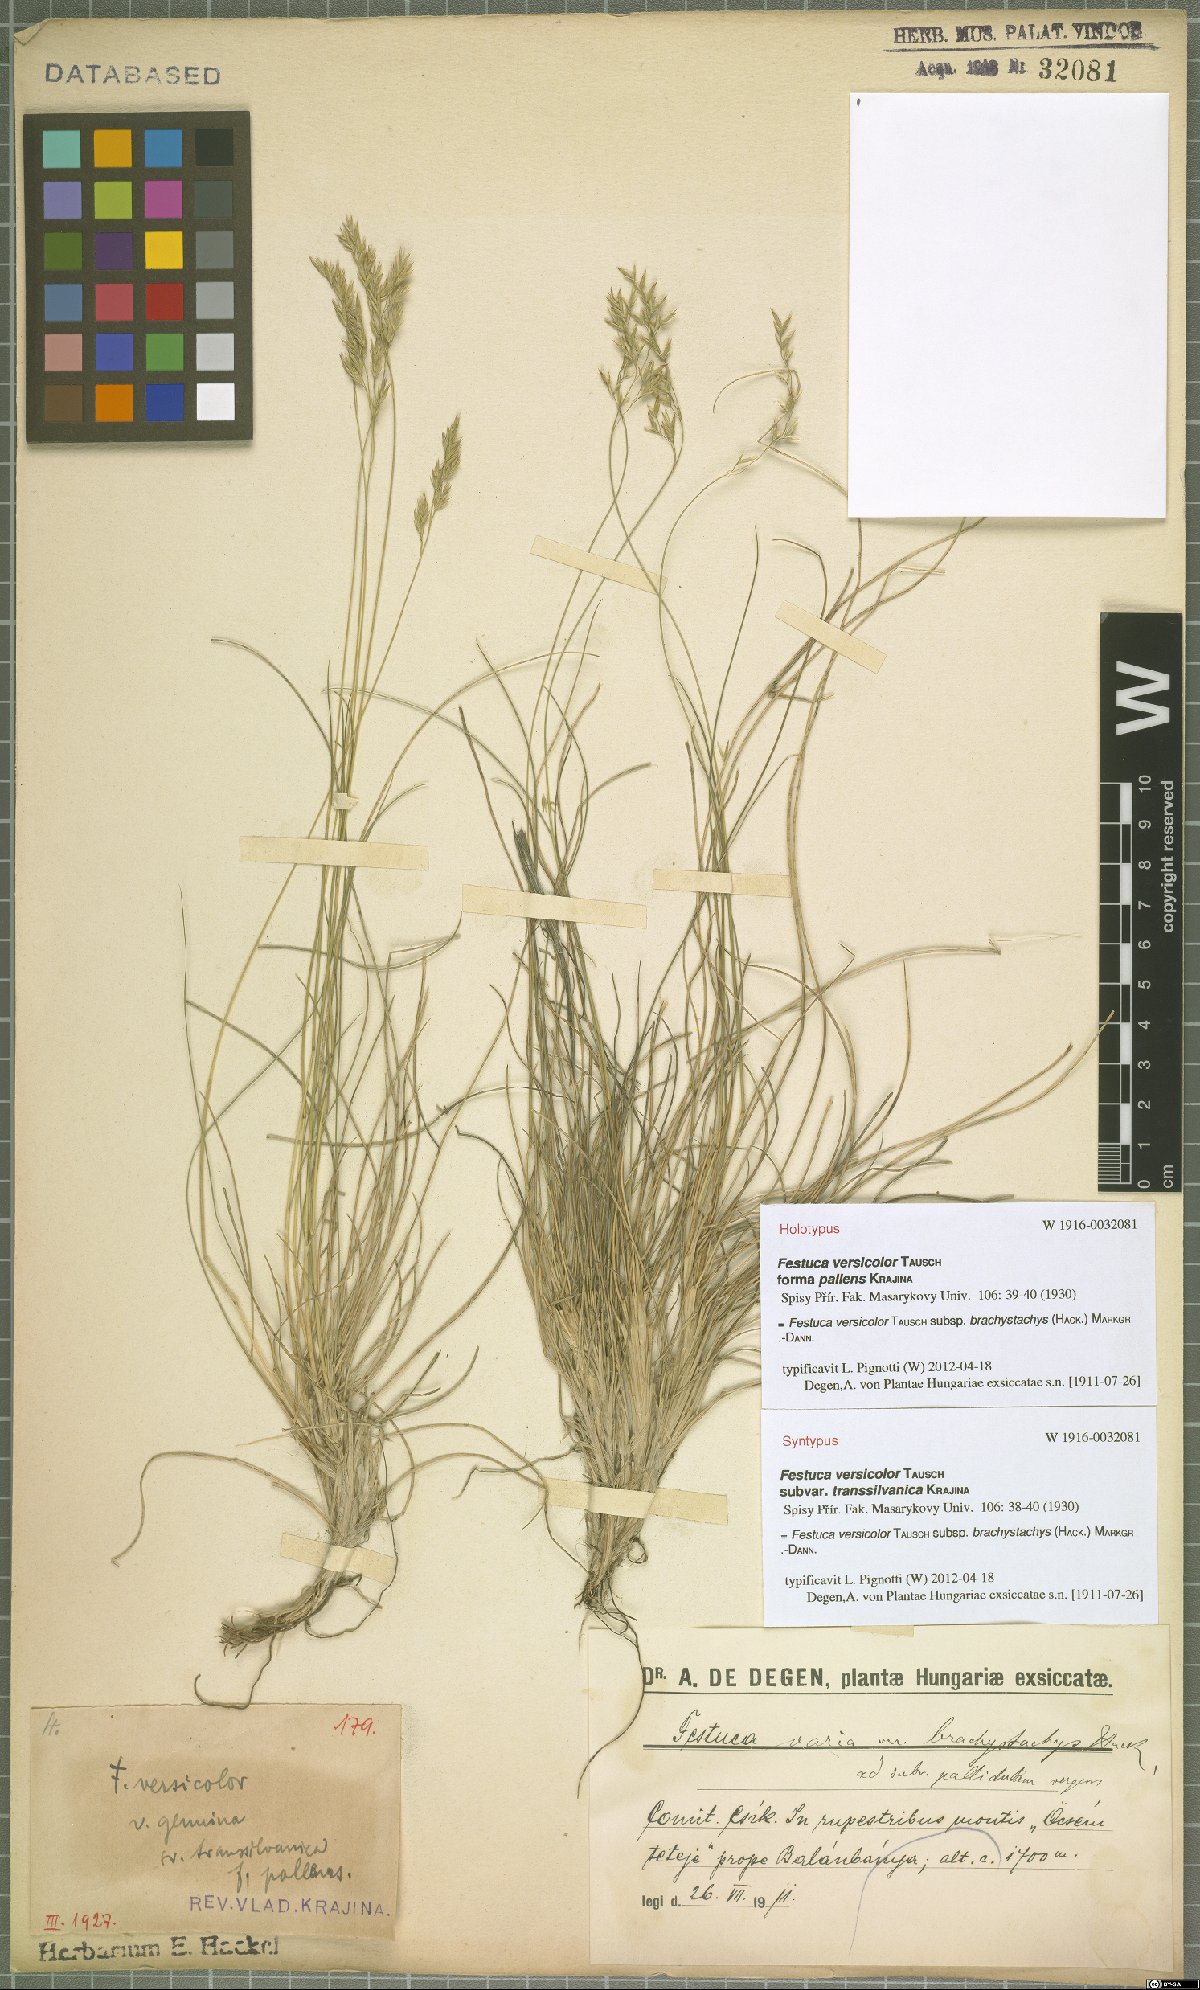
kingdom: Plantae
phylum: Tracheophyta
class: Liliopsida
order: Poales
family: Poaceae
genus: Festuca
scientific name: Festuca varia
